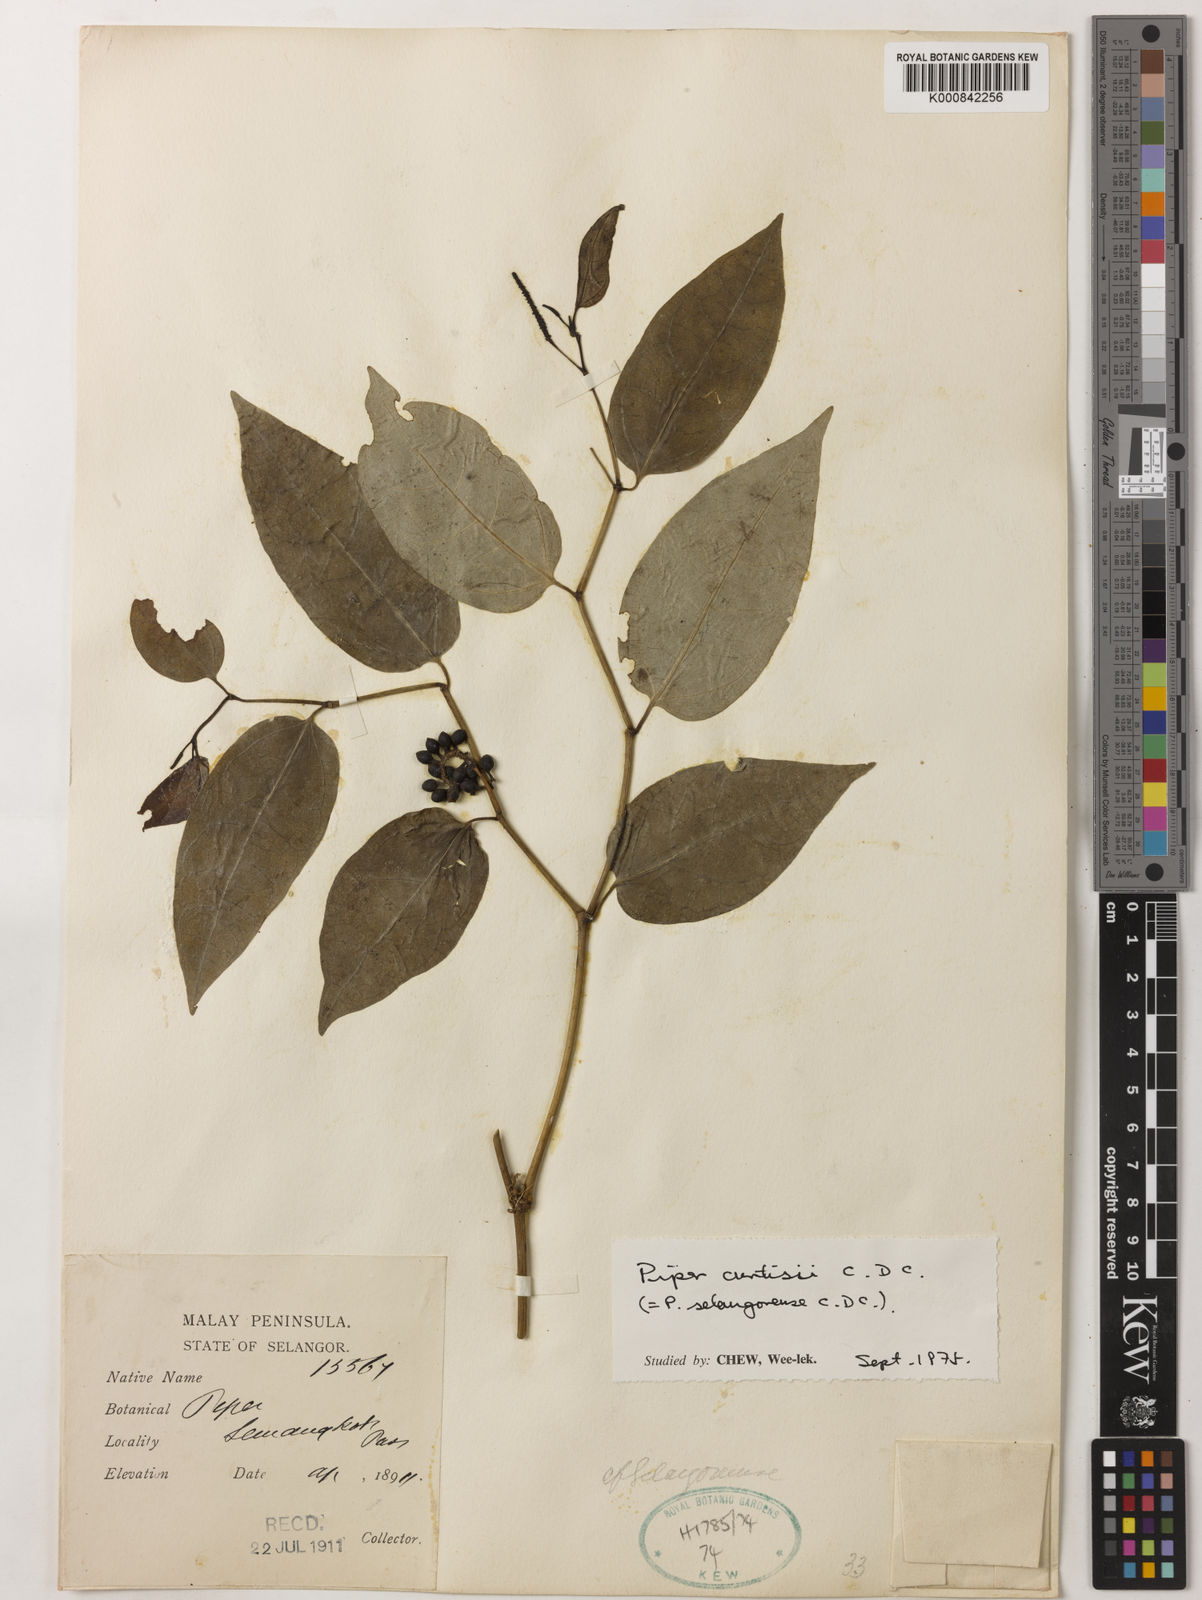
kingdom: Plantae
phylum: Tracheophyta
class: Magnoliopsida
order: Piperales
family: Piperaceae
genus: Piper
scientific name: Piper curtisii
